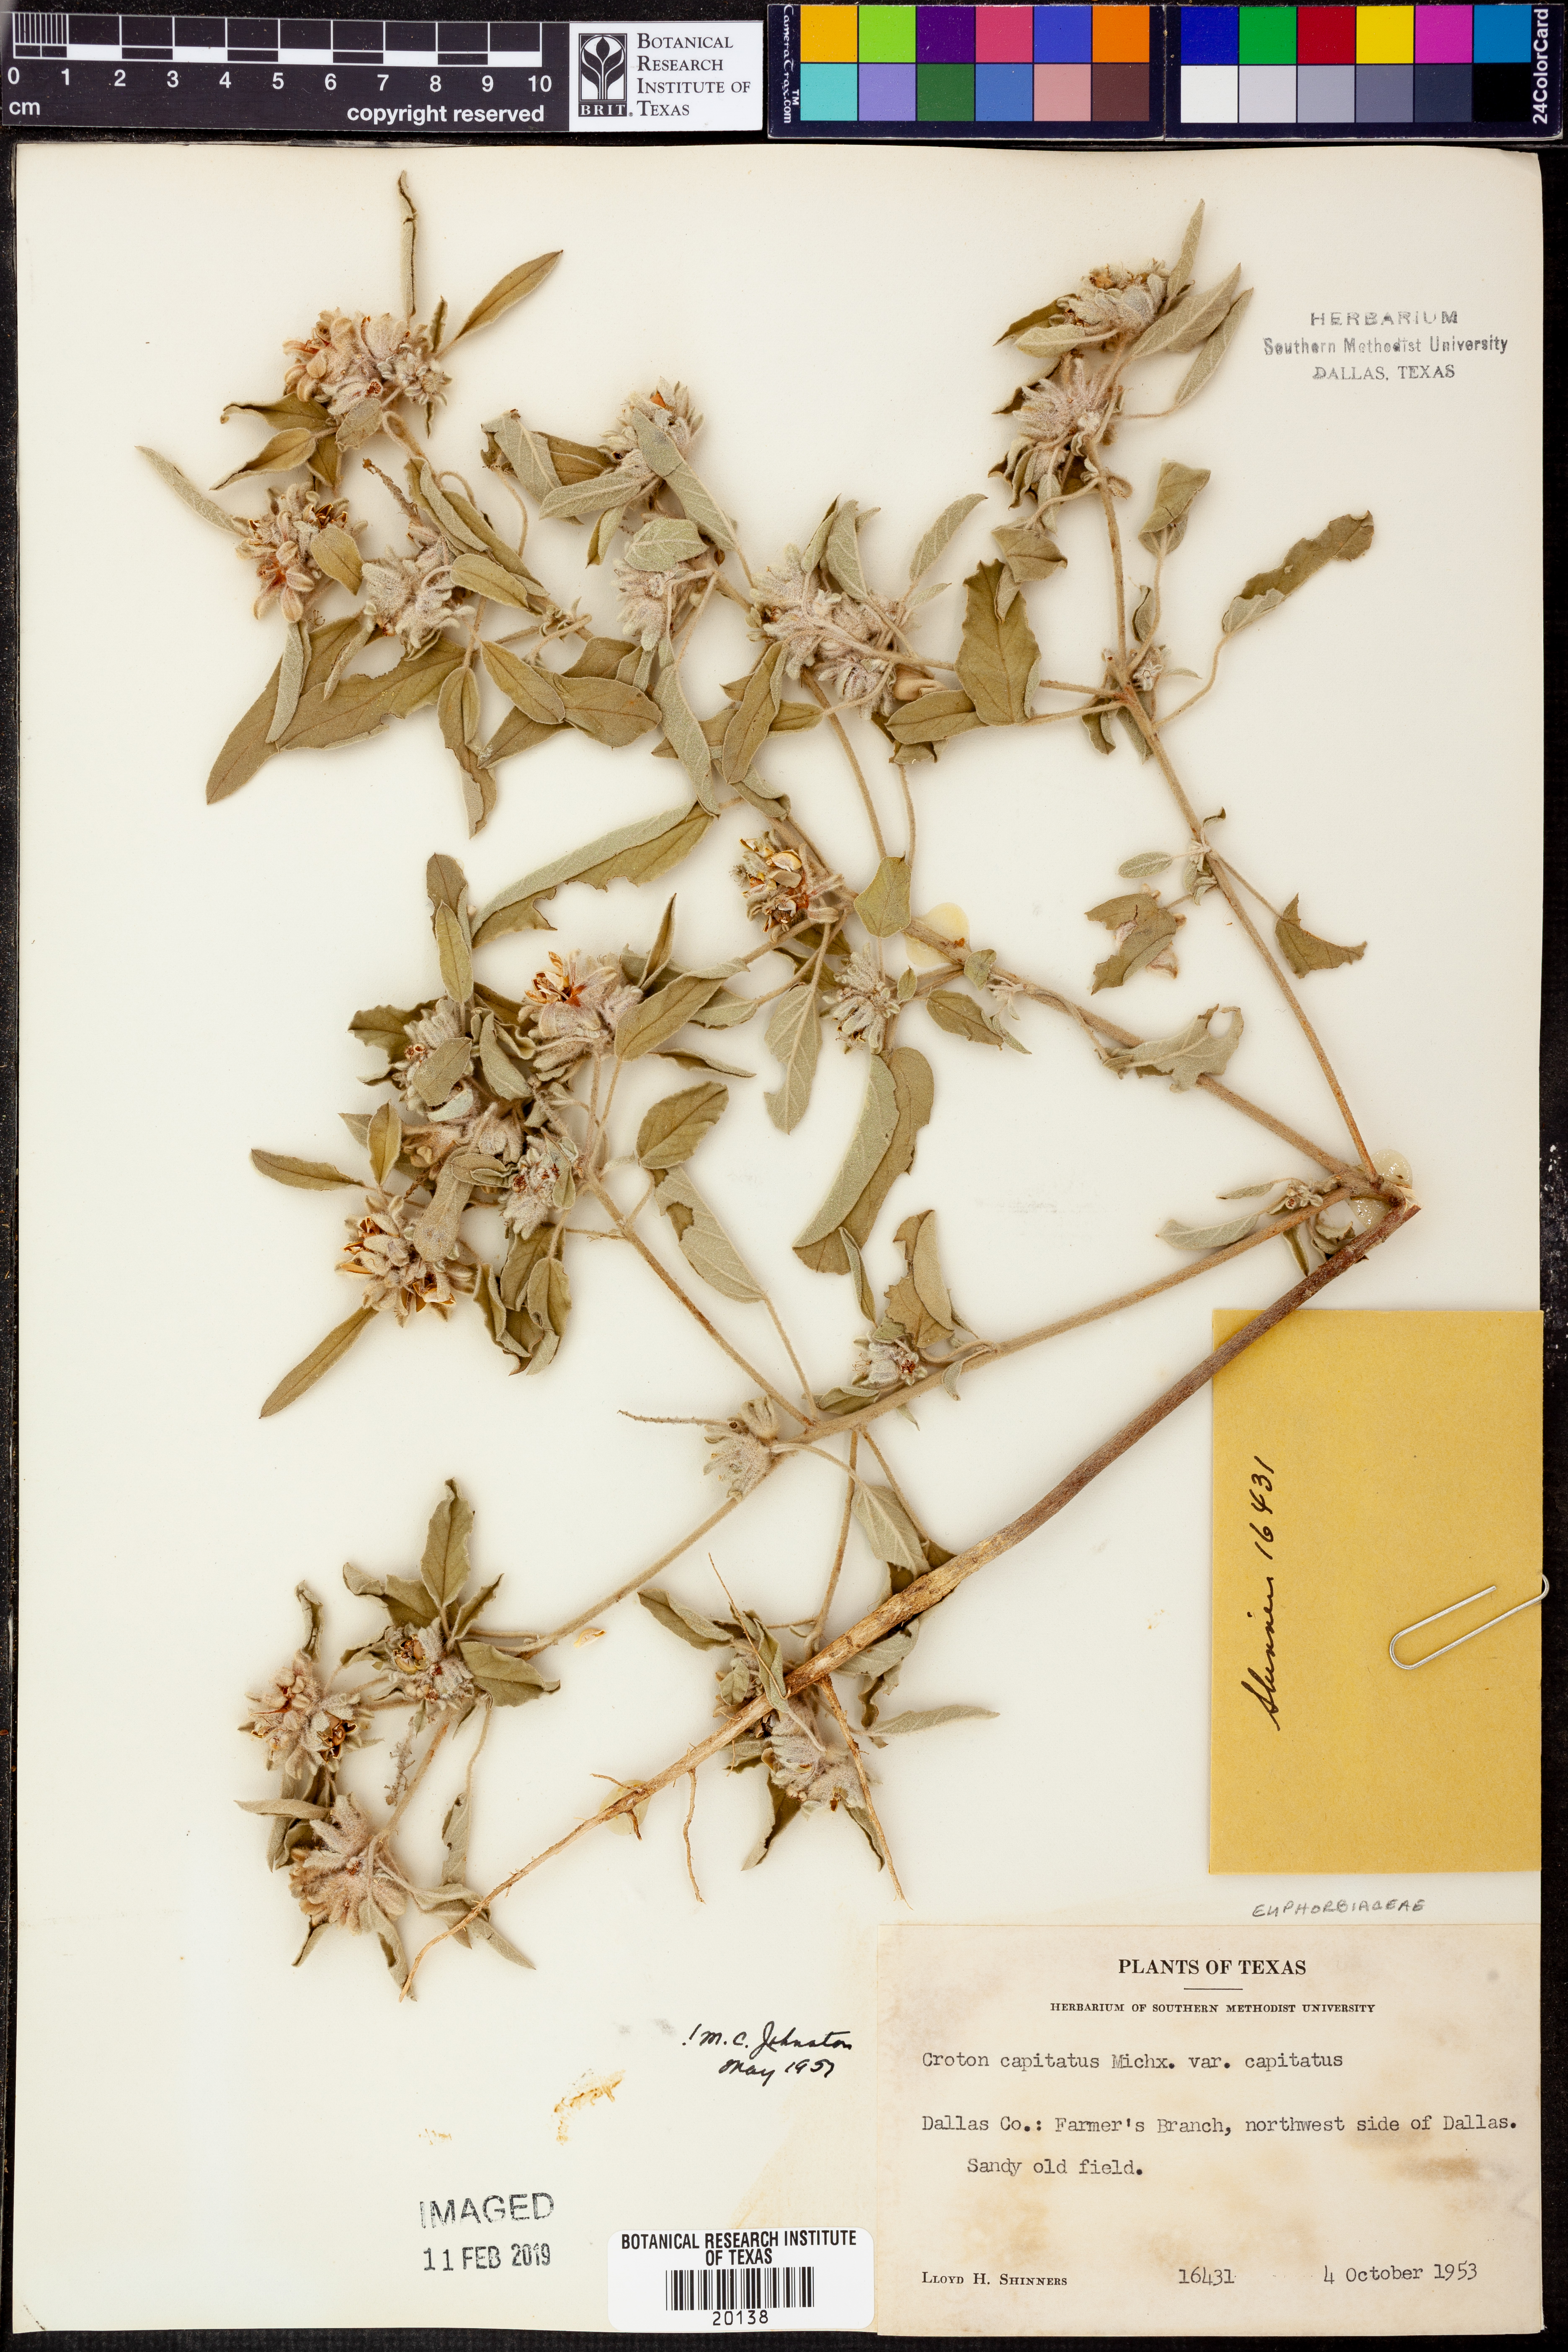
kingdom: Plantae
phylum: Tracheophyta
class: Magnoliopsida
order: Malpighiales
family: Euphorbiaceae
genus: Croton
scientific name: Croton capitatus
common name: Woolly croton
